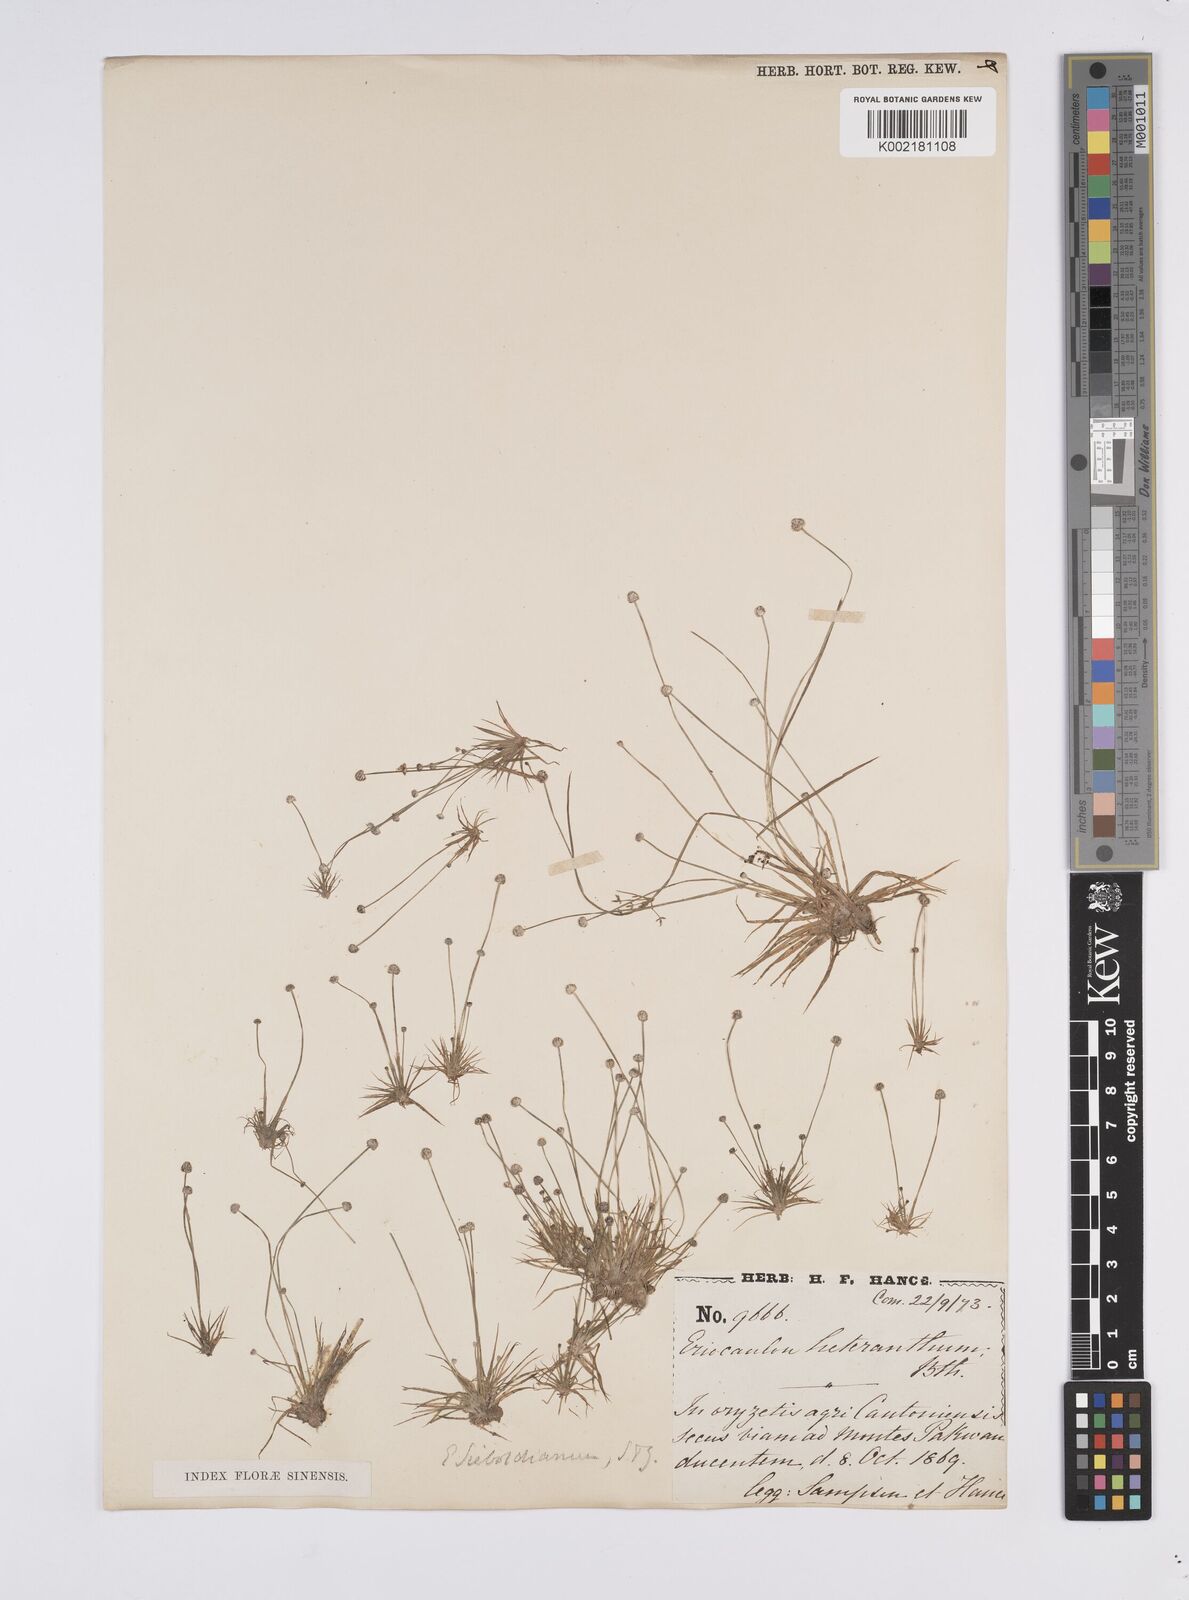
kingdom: Plantae
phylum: Tracheophyta
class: Liliopsida
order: Poales
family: Eriocaulaceae
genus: Eriocaulon
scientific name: Eriocaulon cinereum
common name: Ashy pipewort
